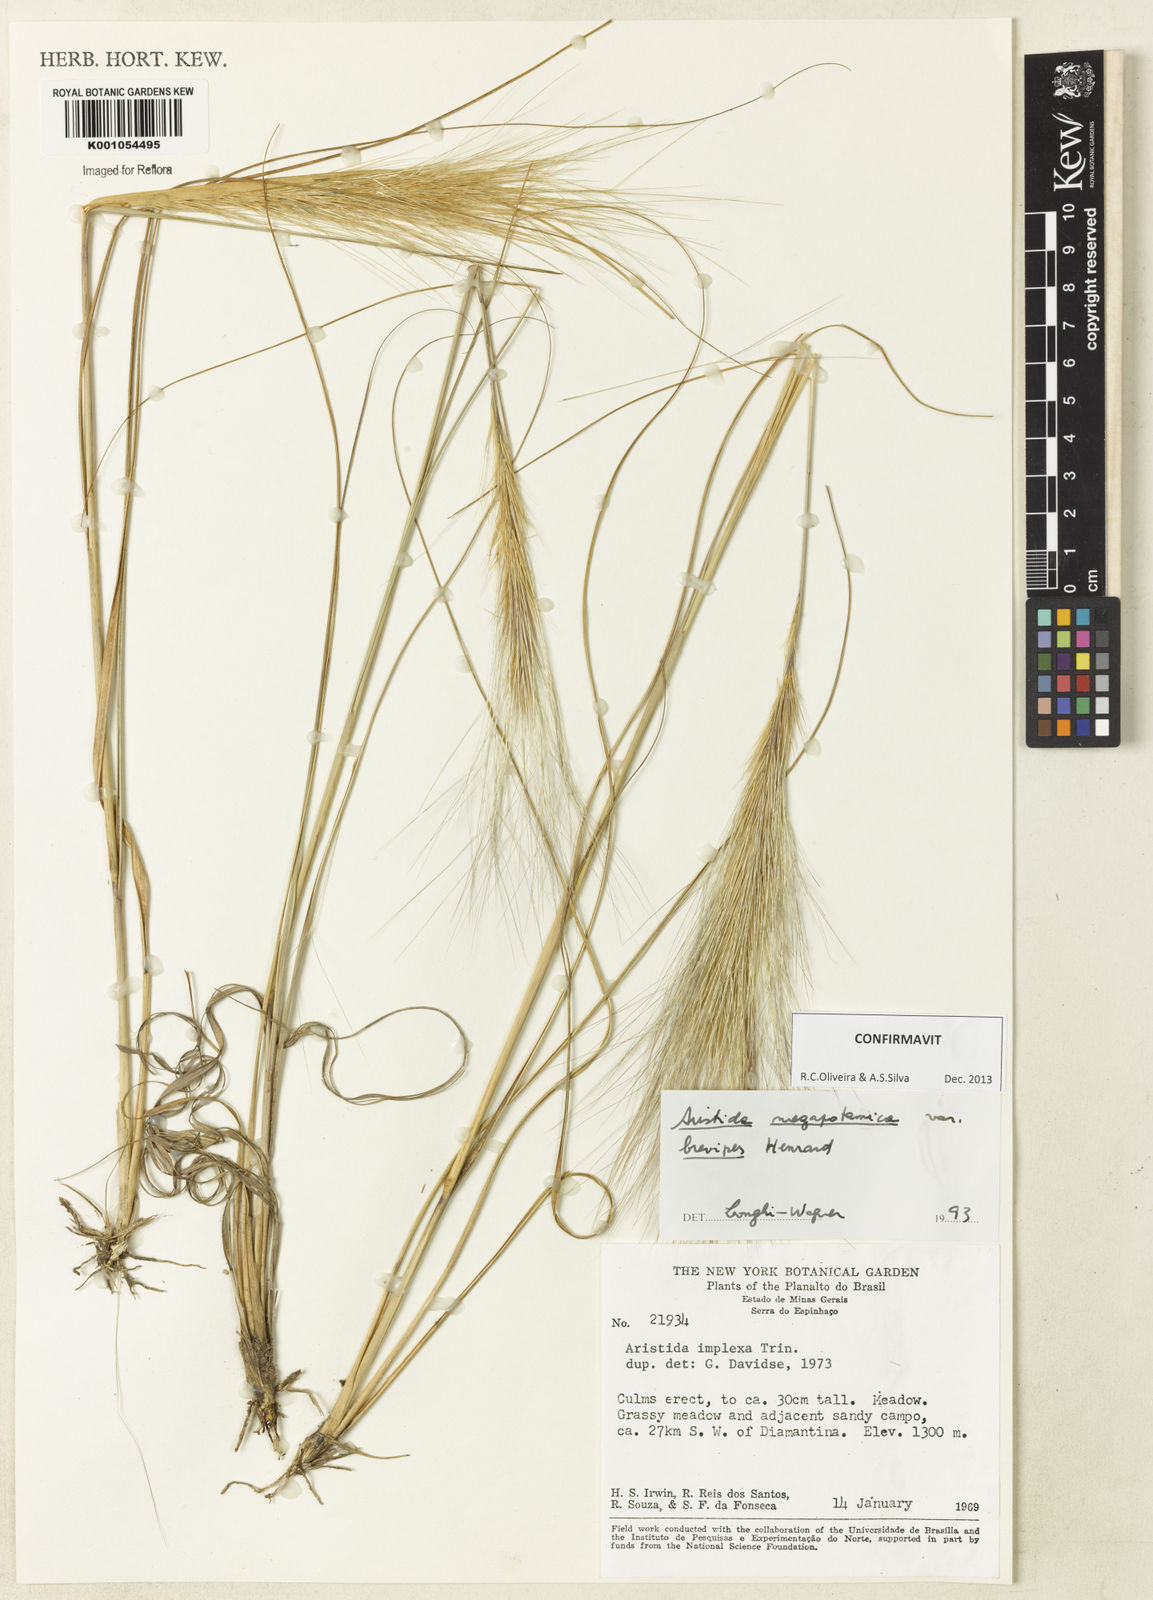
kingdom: Plantae
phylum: Tracheophyta
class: Liliopsida
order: Poales
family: Poaceae
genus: Aristida
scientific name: Aristida megapotamica
